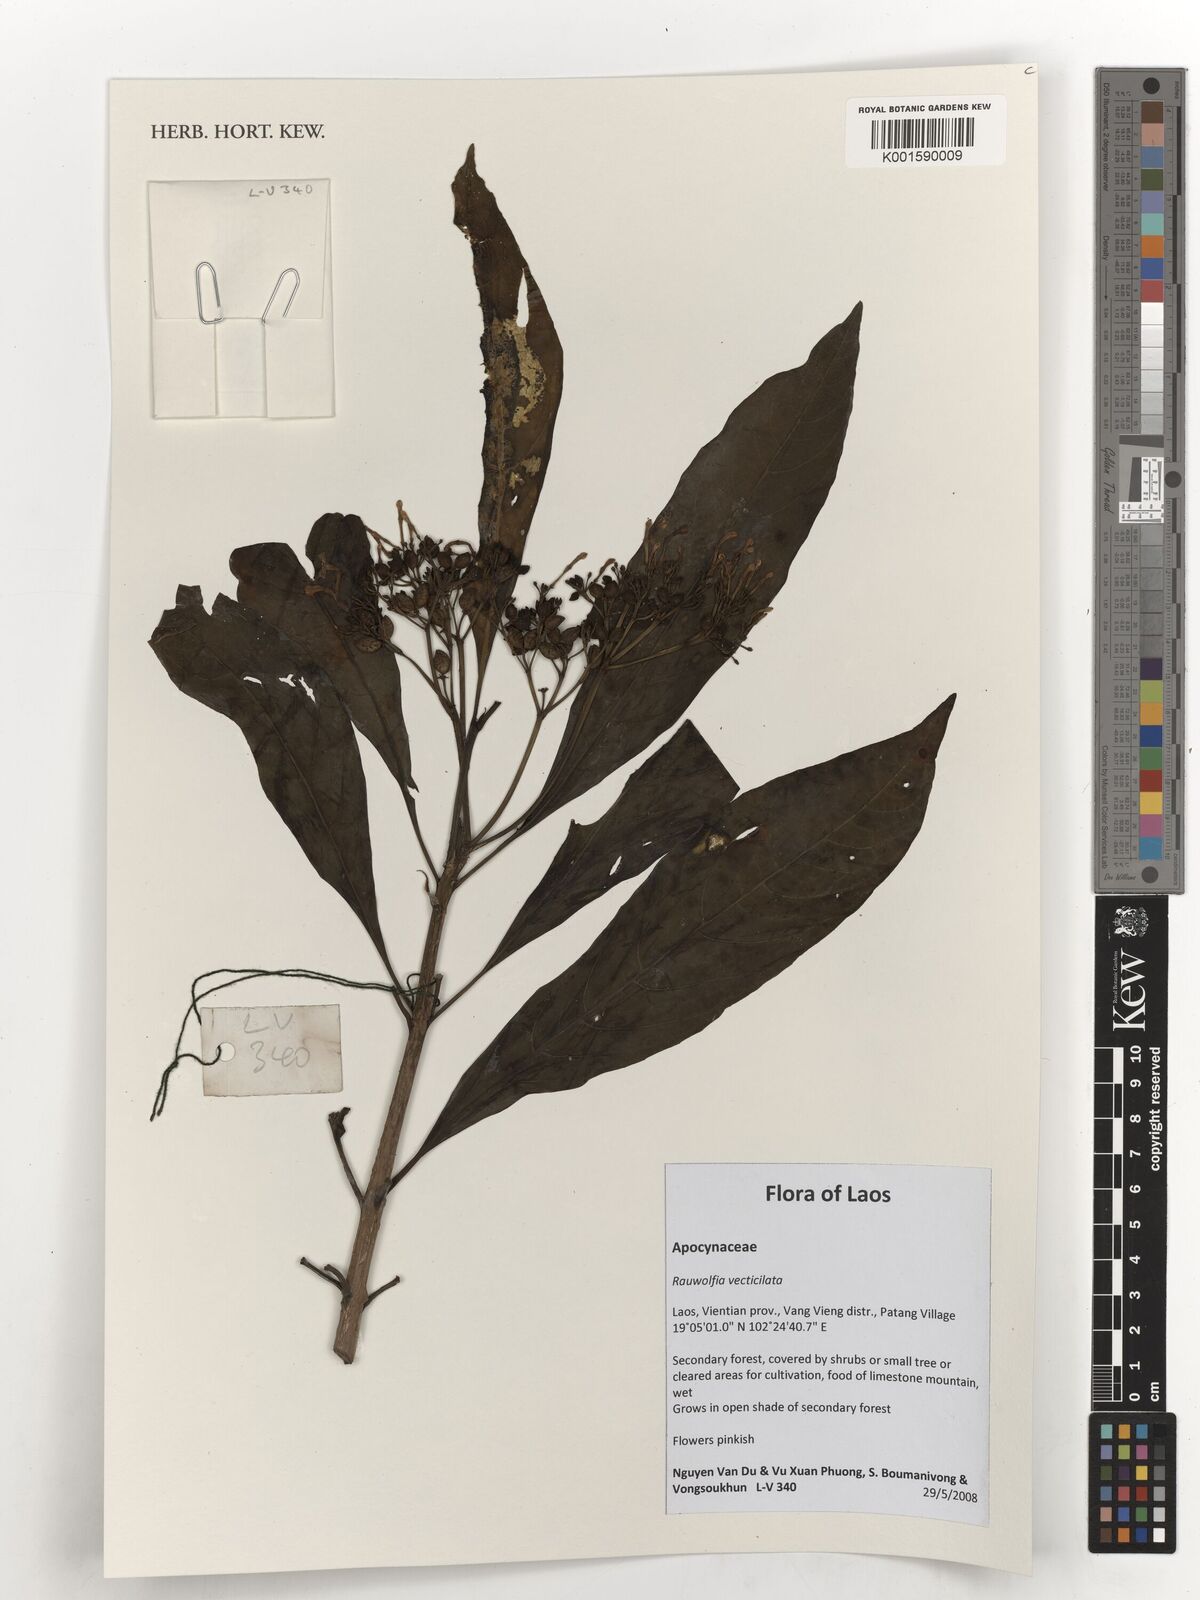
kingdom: Plantae
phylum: Tracheophyta
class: Magnoliopsida
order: Gentianales
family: Apocynaceae
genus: Rauvolfia
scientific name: Rauvolfia verticillata
